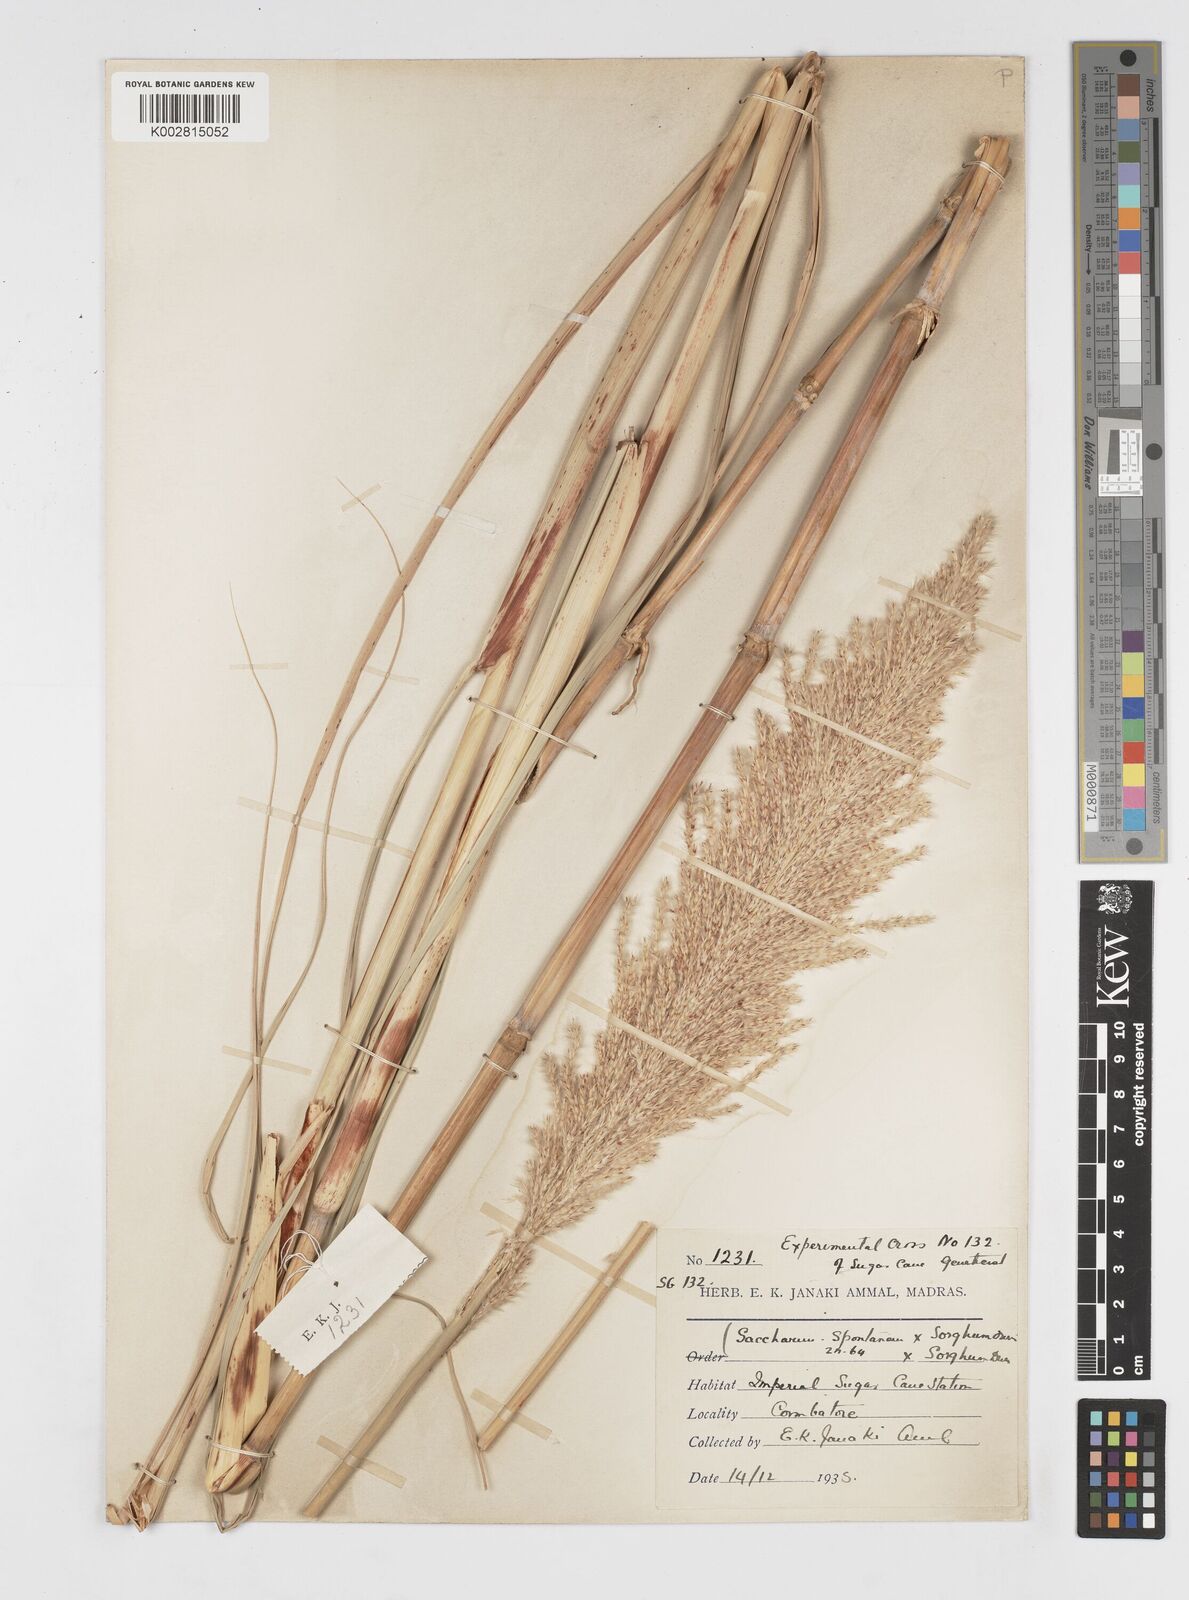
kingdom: Plantae
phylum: Tracheophyta
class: Liliopsida
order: Poales
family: Poaceae
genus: Saccharum
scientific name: Saccharum
